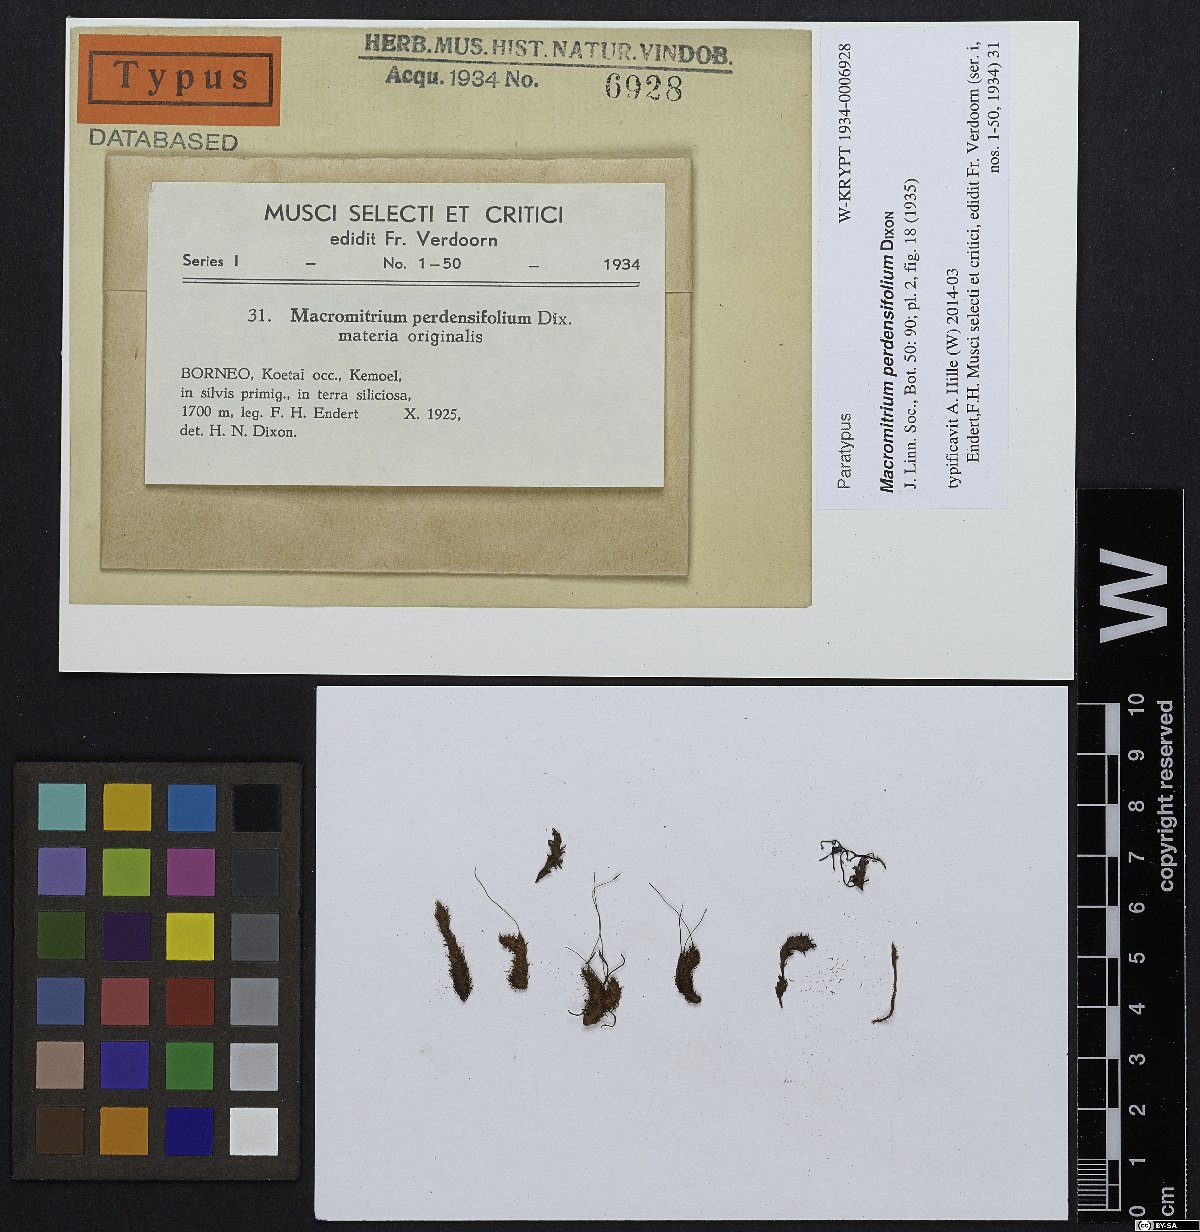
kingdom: Plantae
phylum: Bryophyta
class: Bryopsida
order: Orthotrichales
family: Orthotrichaceae
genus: Macromitrium
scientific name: Macromitrium perdensifolium
